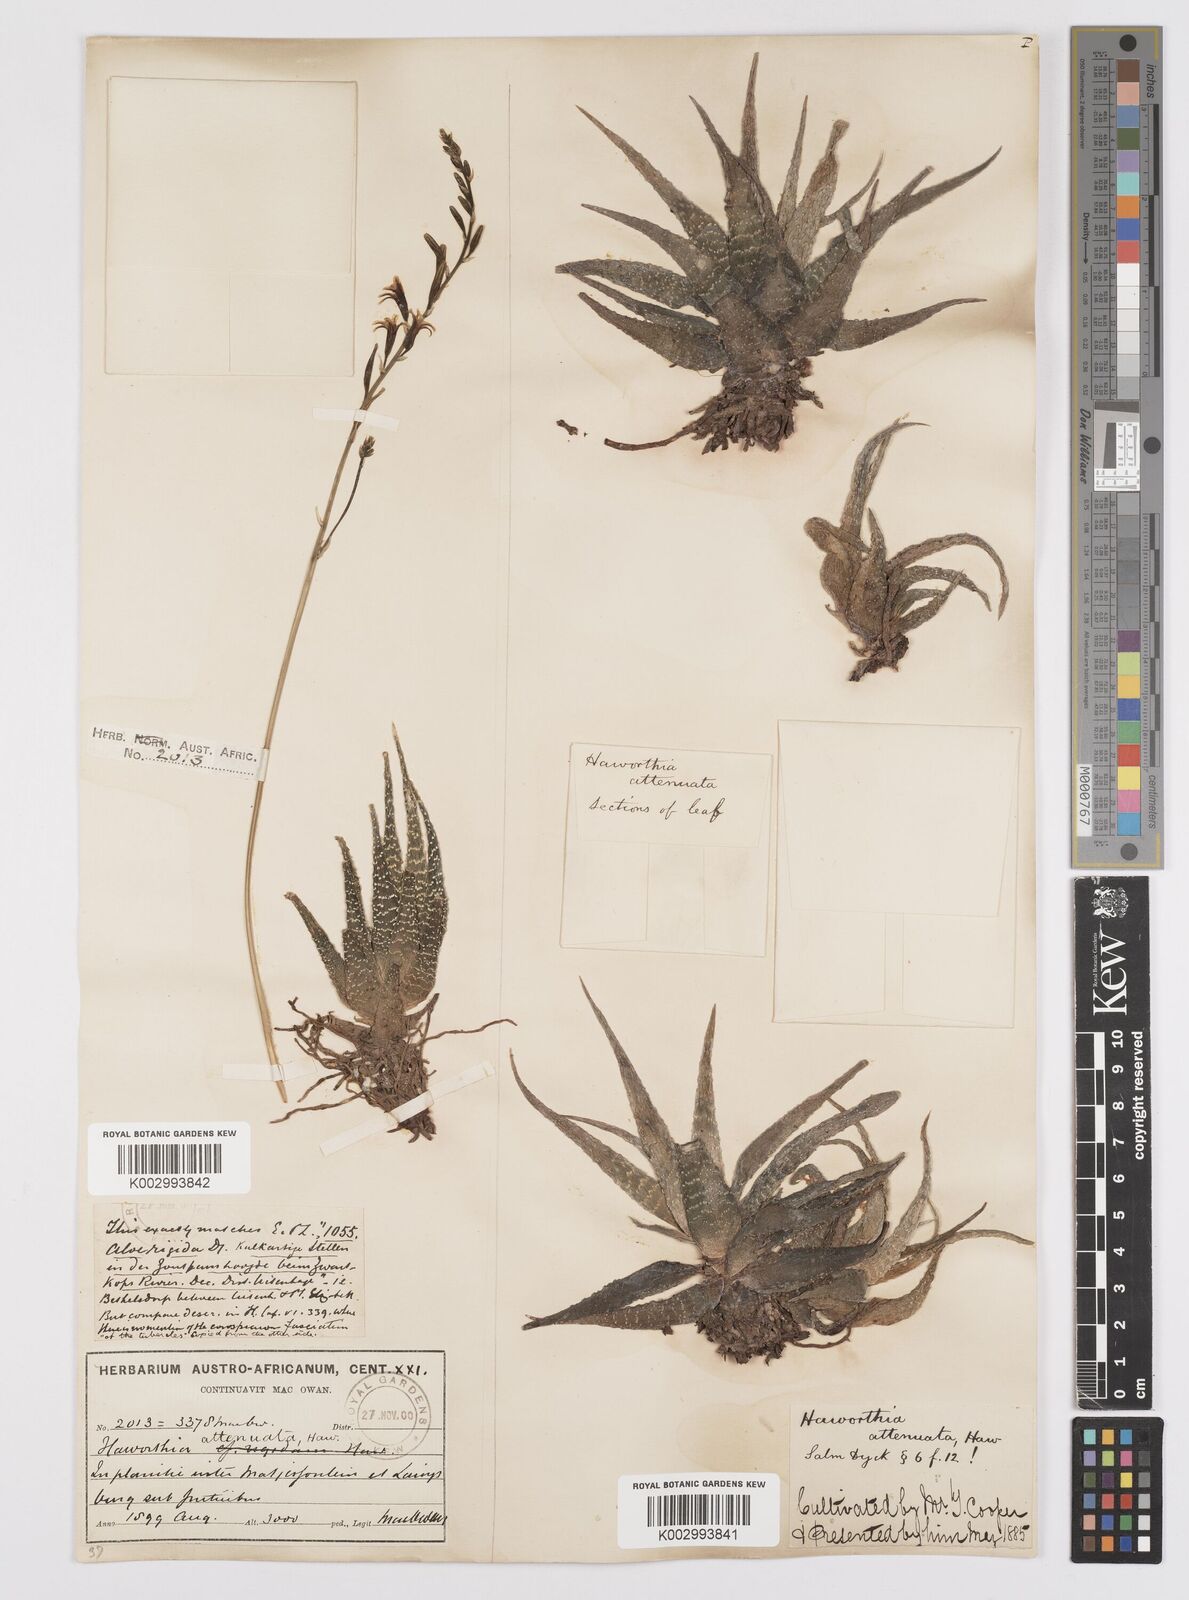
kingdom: Plantae
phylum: Tracheophyta
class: Liliopsida
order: Asparagales
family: Asphodelaceae
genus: Haworthiopsis
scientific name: Haworthiopsis attenuata
